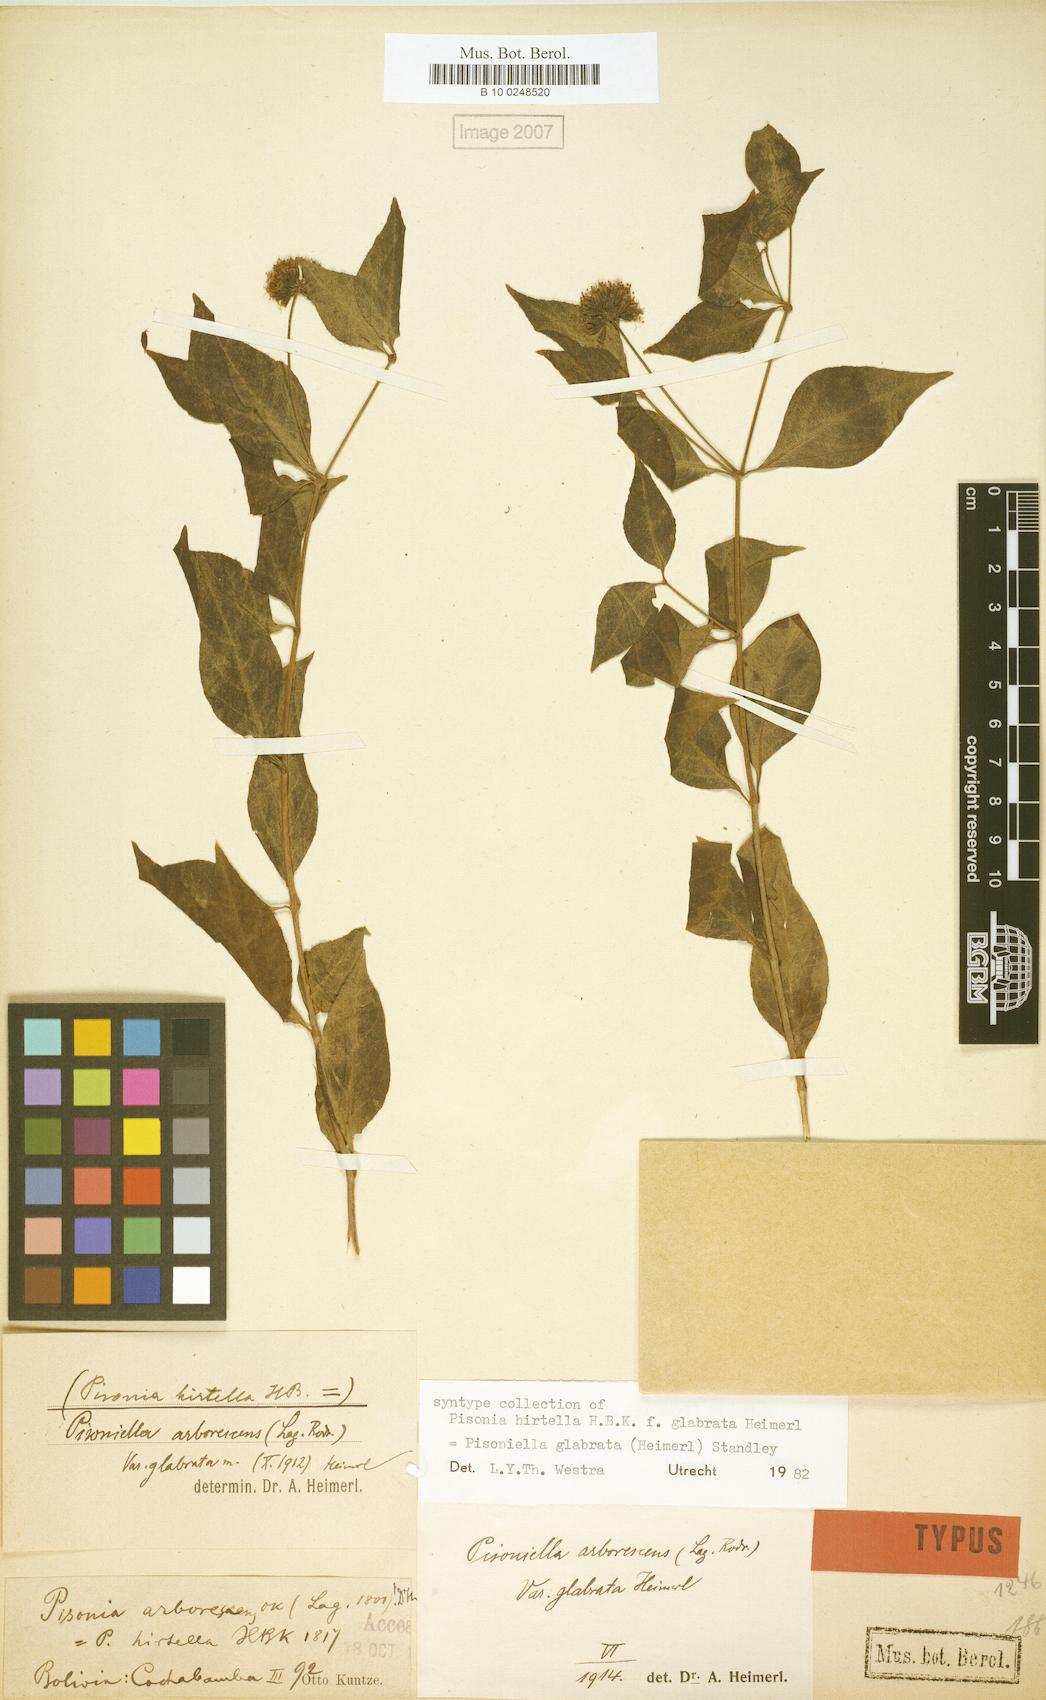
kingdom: Plantae
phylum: Tracheophyta
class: Magnoliopsida
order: Caryophyllales
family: Nyctaginaceae
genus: Pisoniella
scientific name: Pisoniella glabrata
